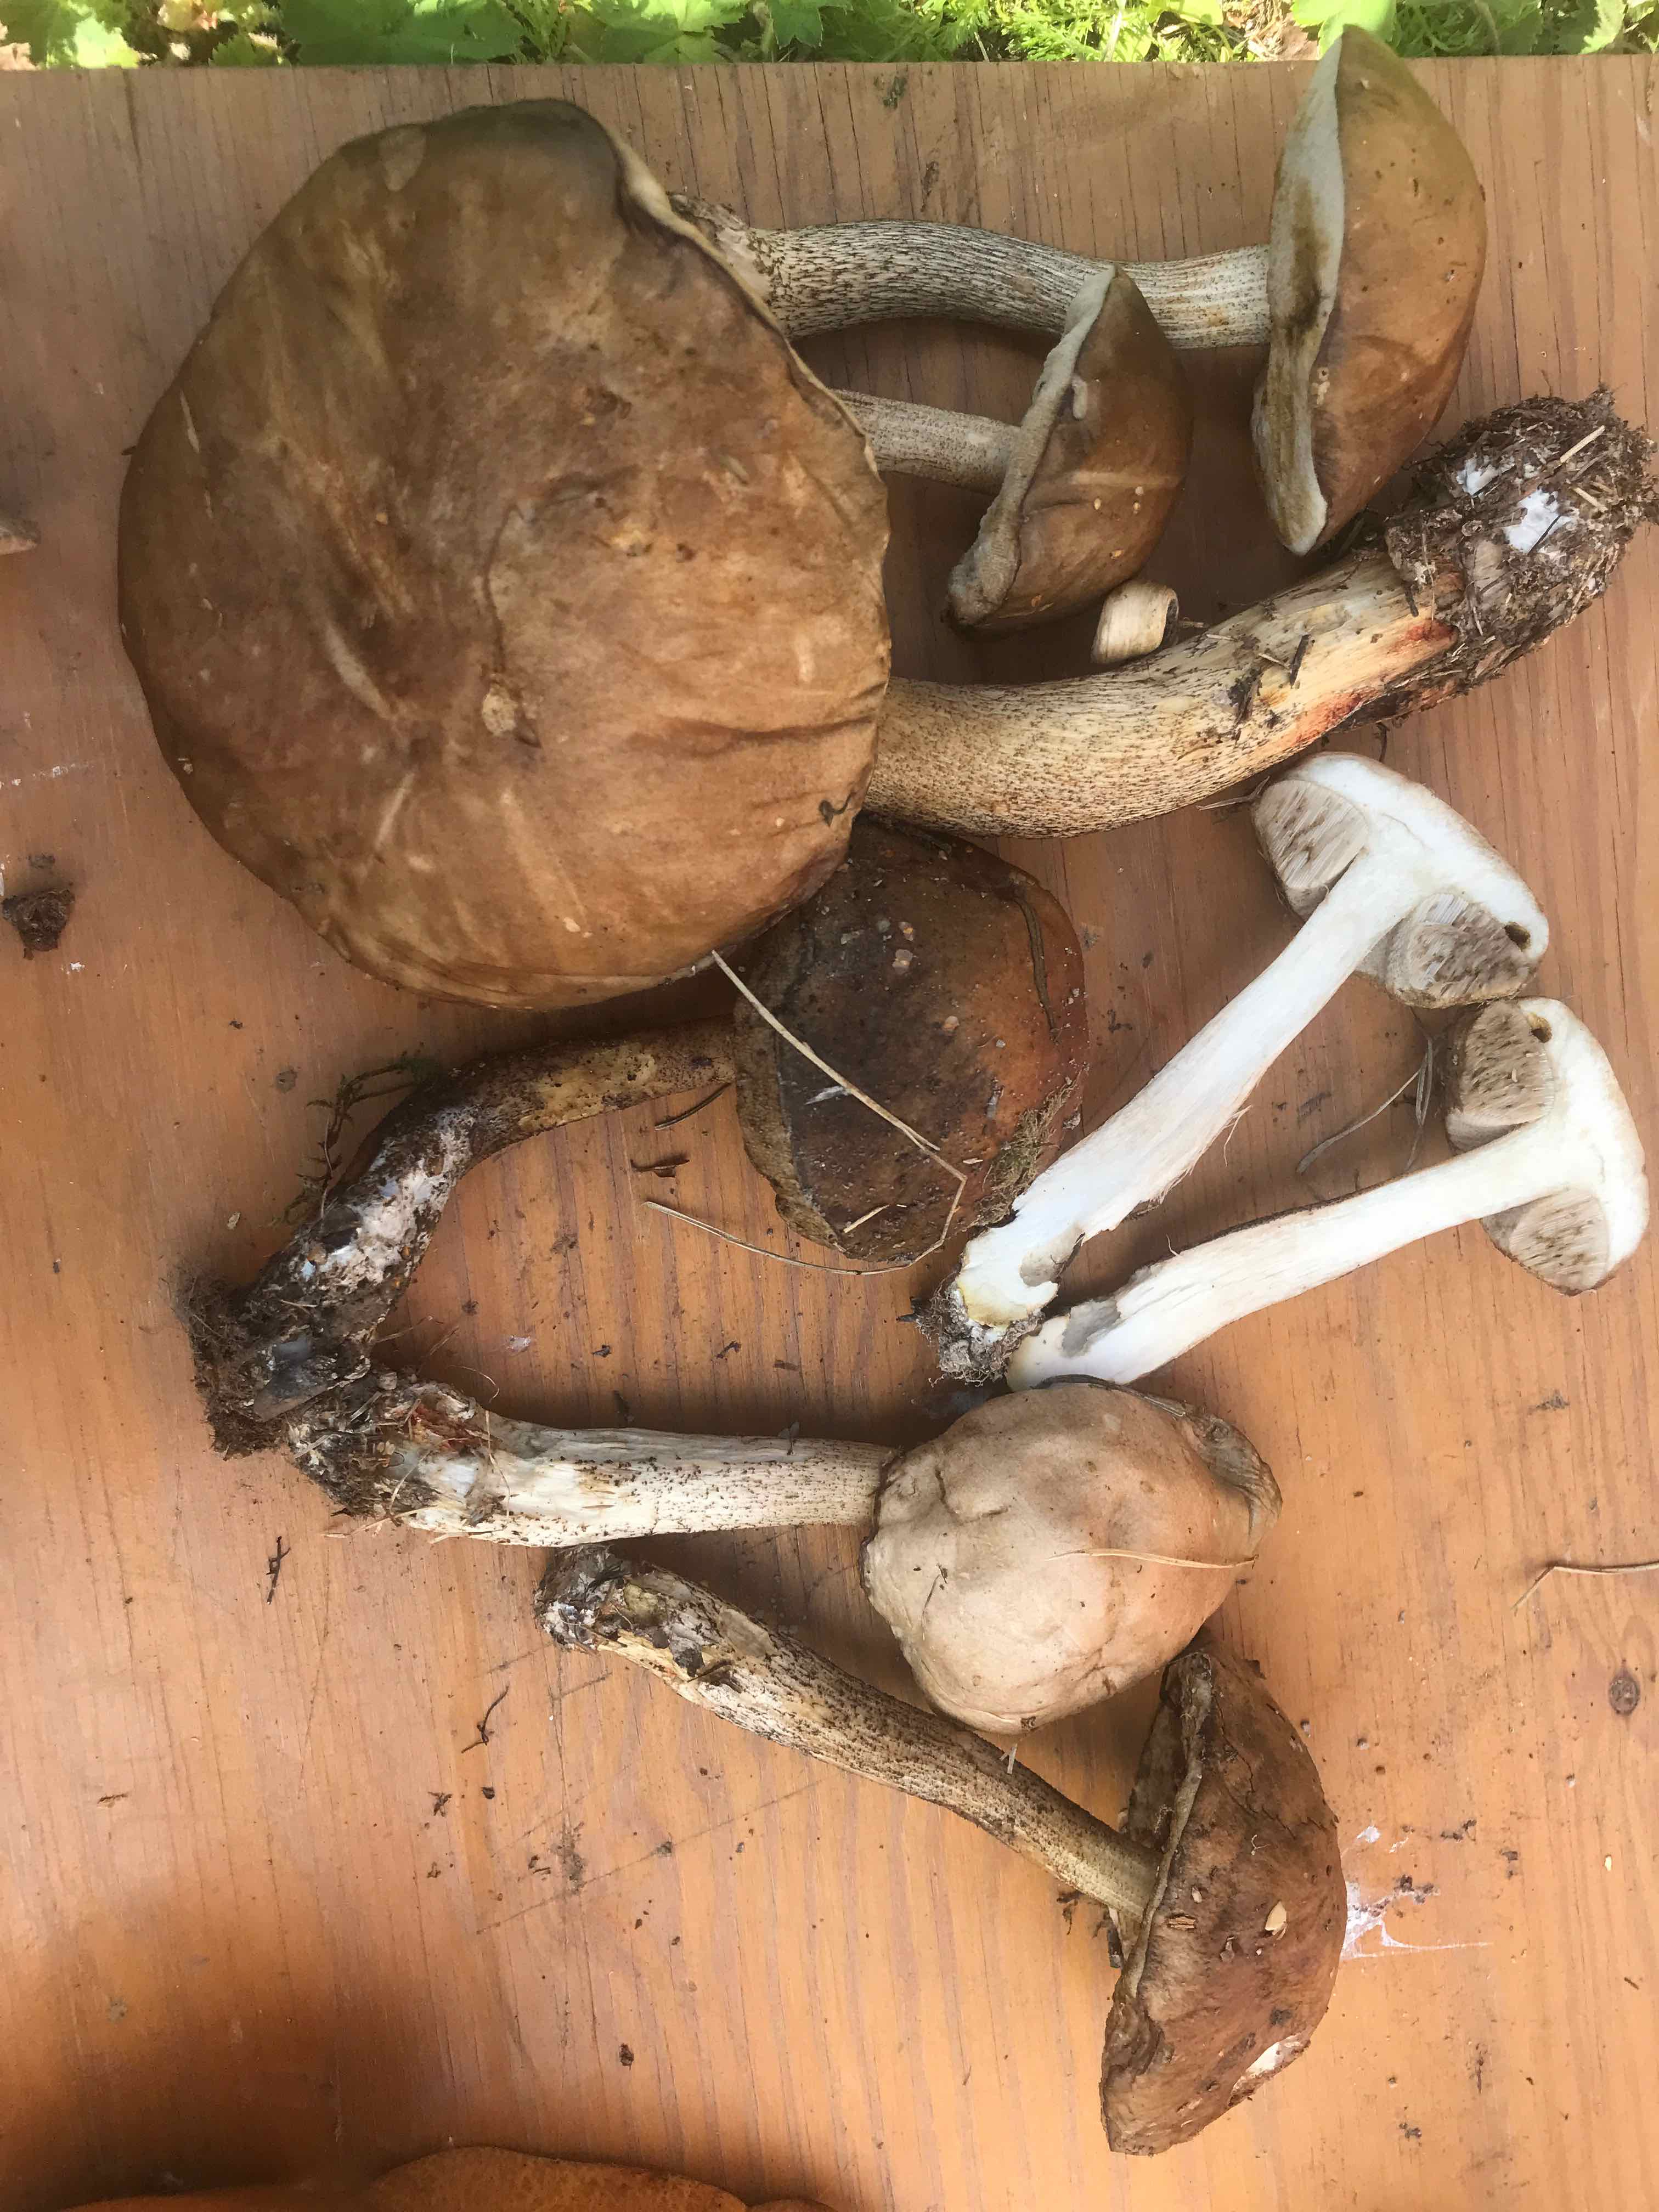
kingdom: Fungi
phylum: Basidiomycota
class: Agaricomycetes
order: Boletales
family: Boletaceae
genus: Leccinum
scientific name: Leccinum scabrum
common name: brun skælrørhat
